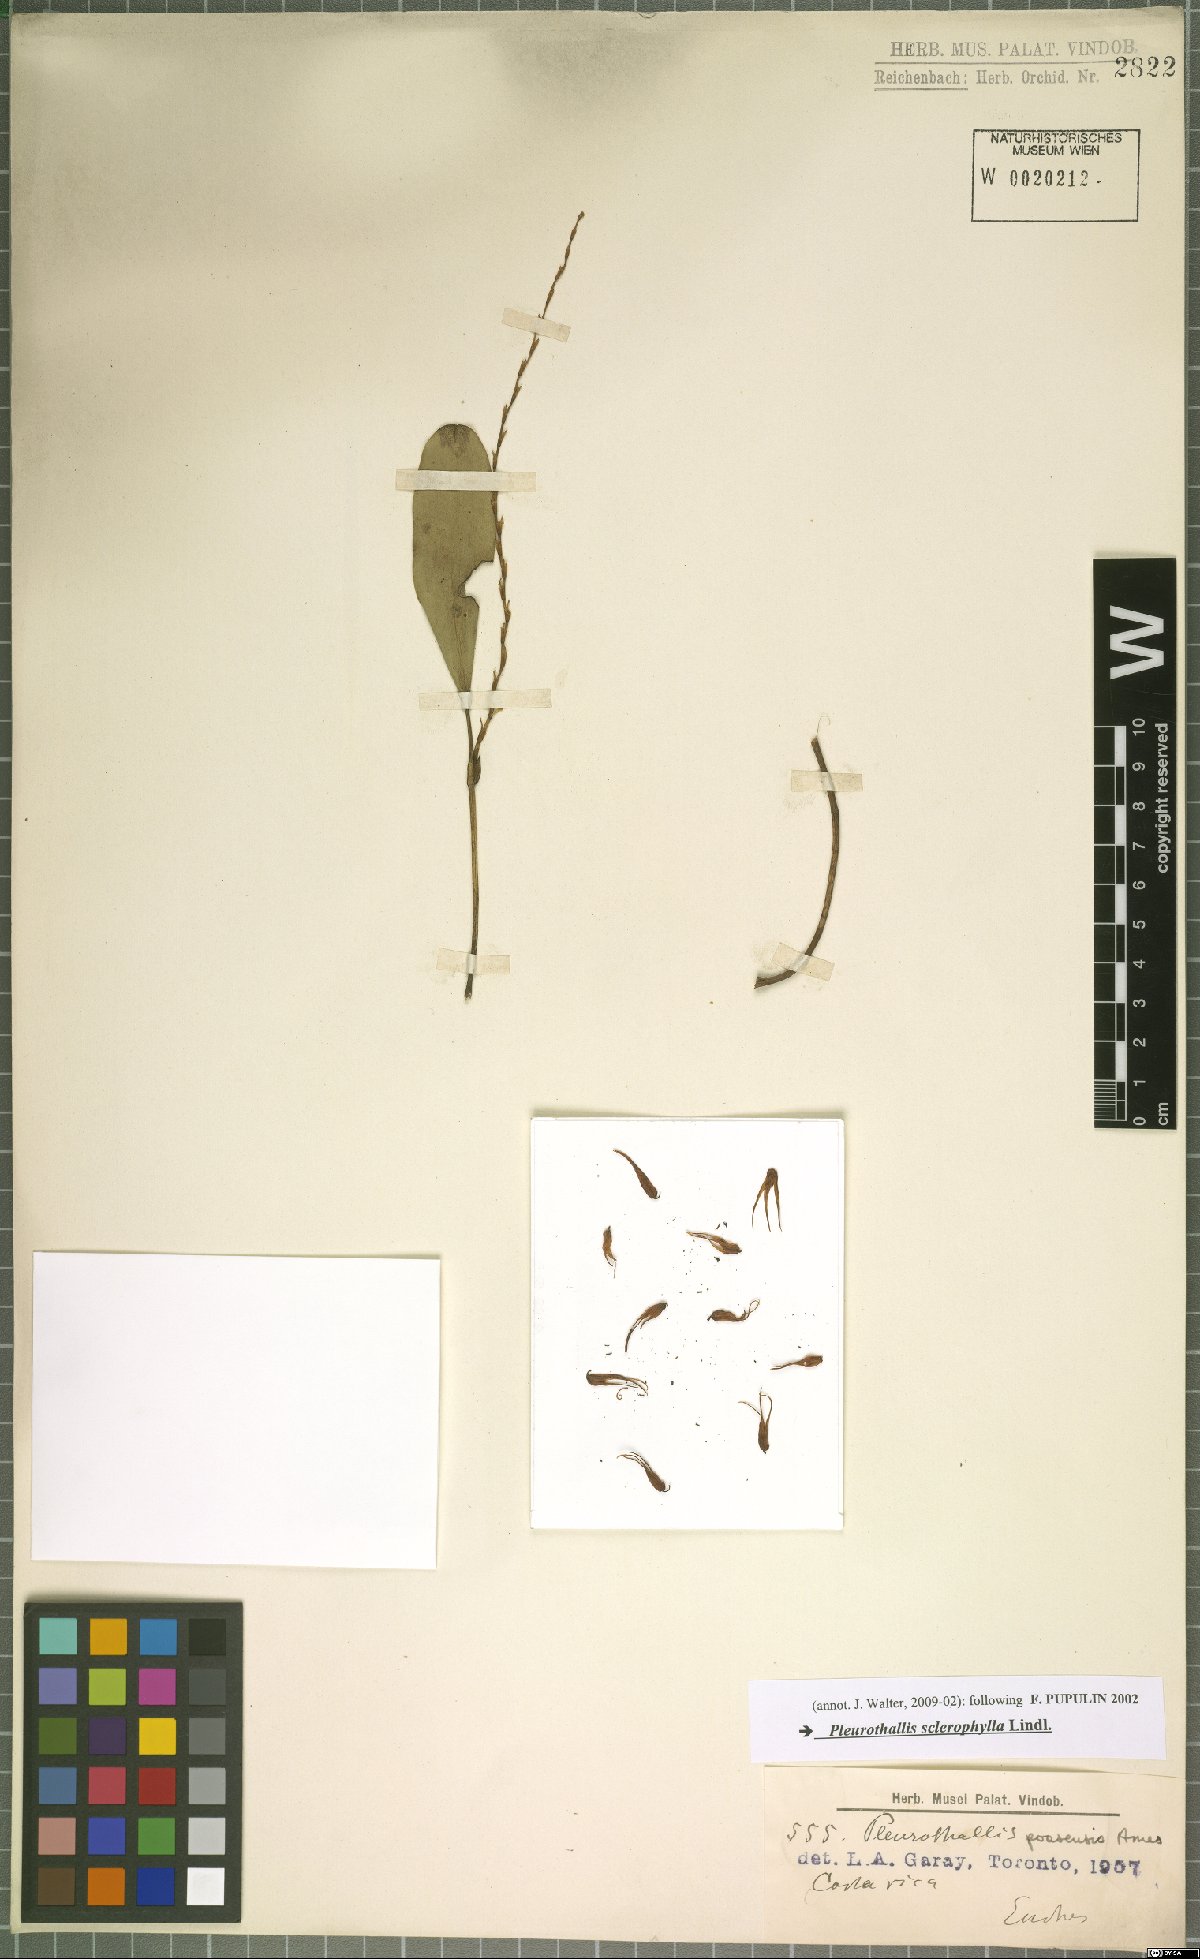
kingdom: Plantae
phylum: Tracheophyta
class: Liliopsida
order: Asparagales
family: Orchidaceae
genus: Stelis
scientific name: Stelis sclerophylla
